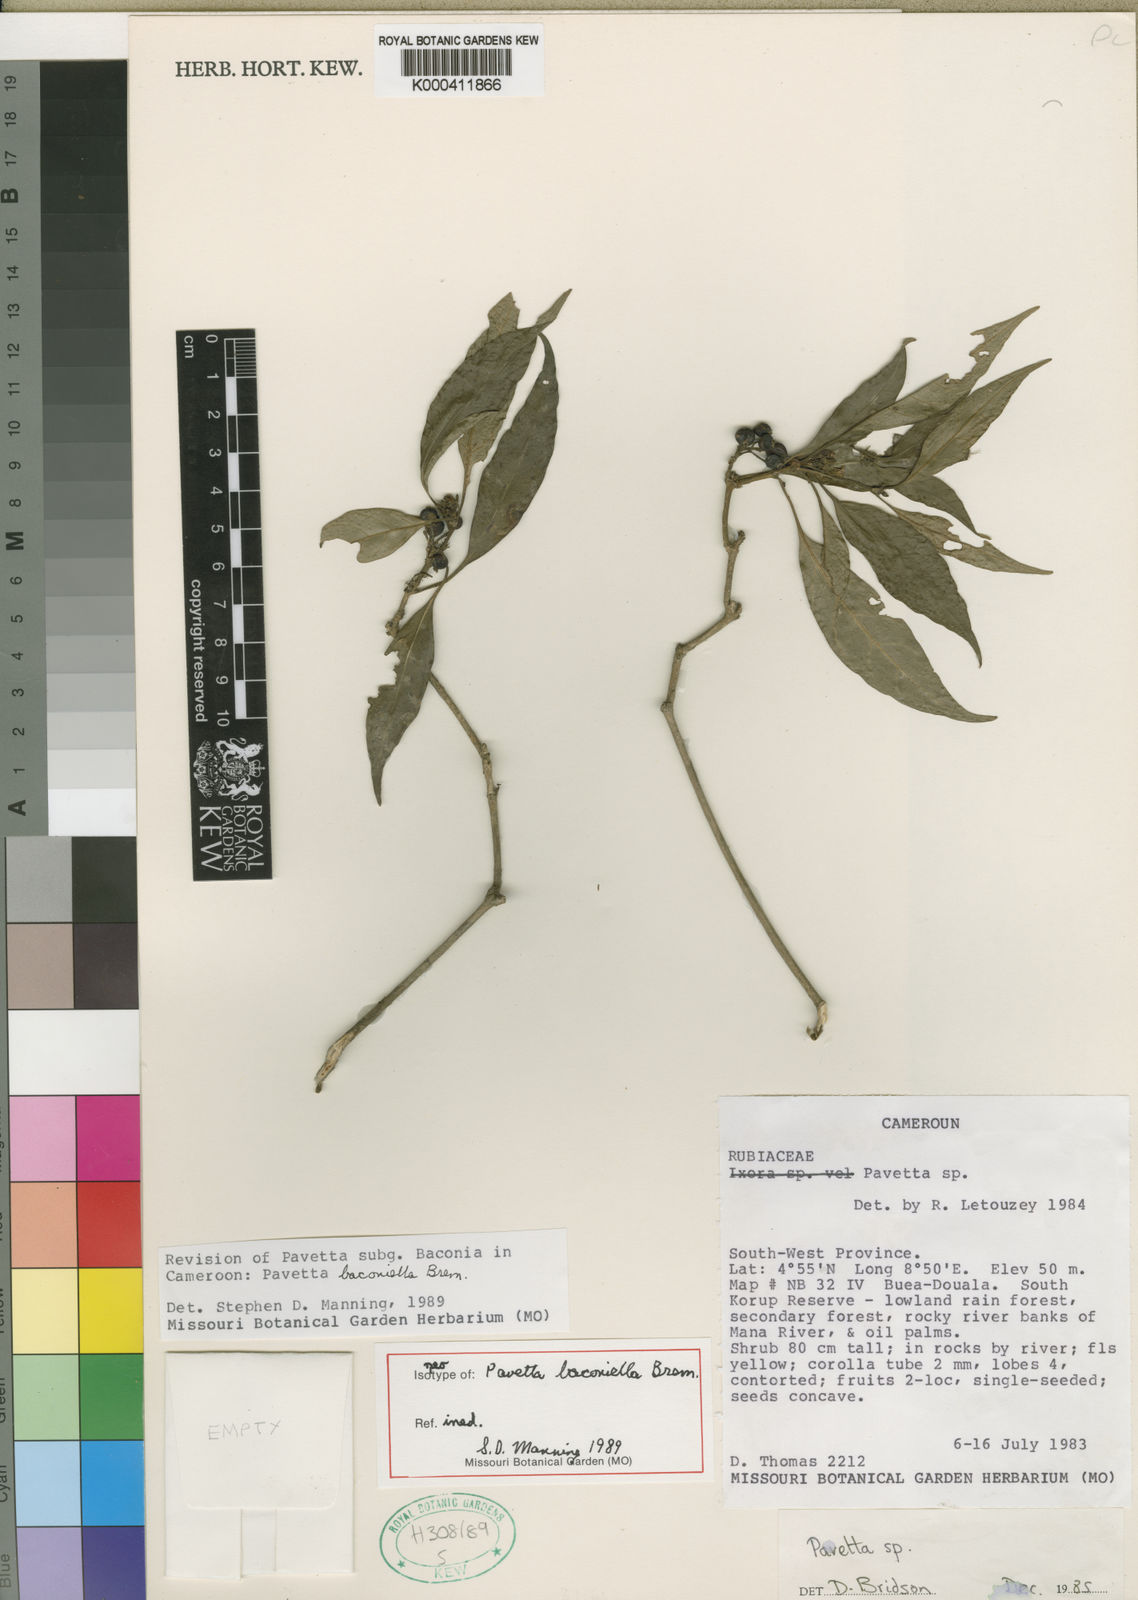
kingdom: Plantae
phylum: Tracheophyta
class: Magnoliopsida
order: Gentianales
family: Rubiaceae
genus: Pavetta
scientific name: Pavetta baconiella
